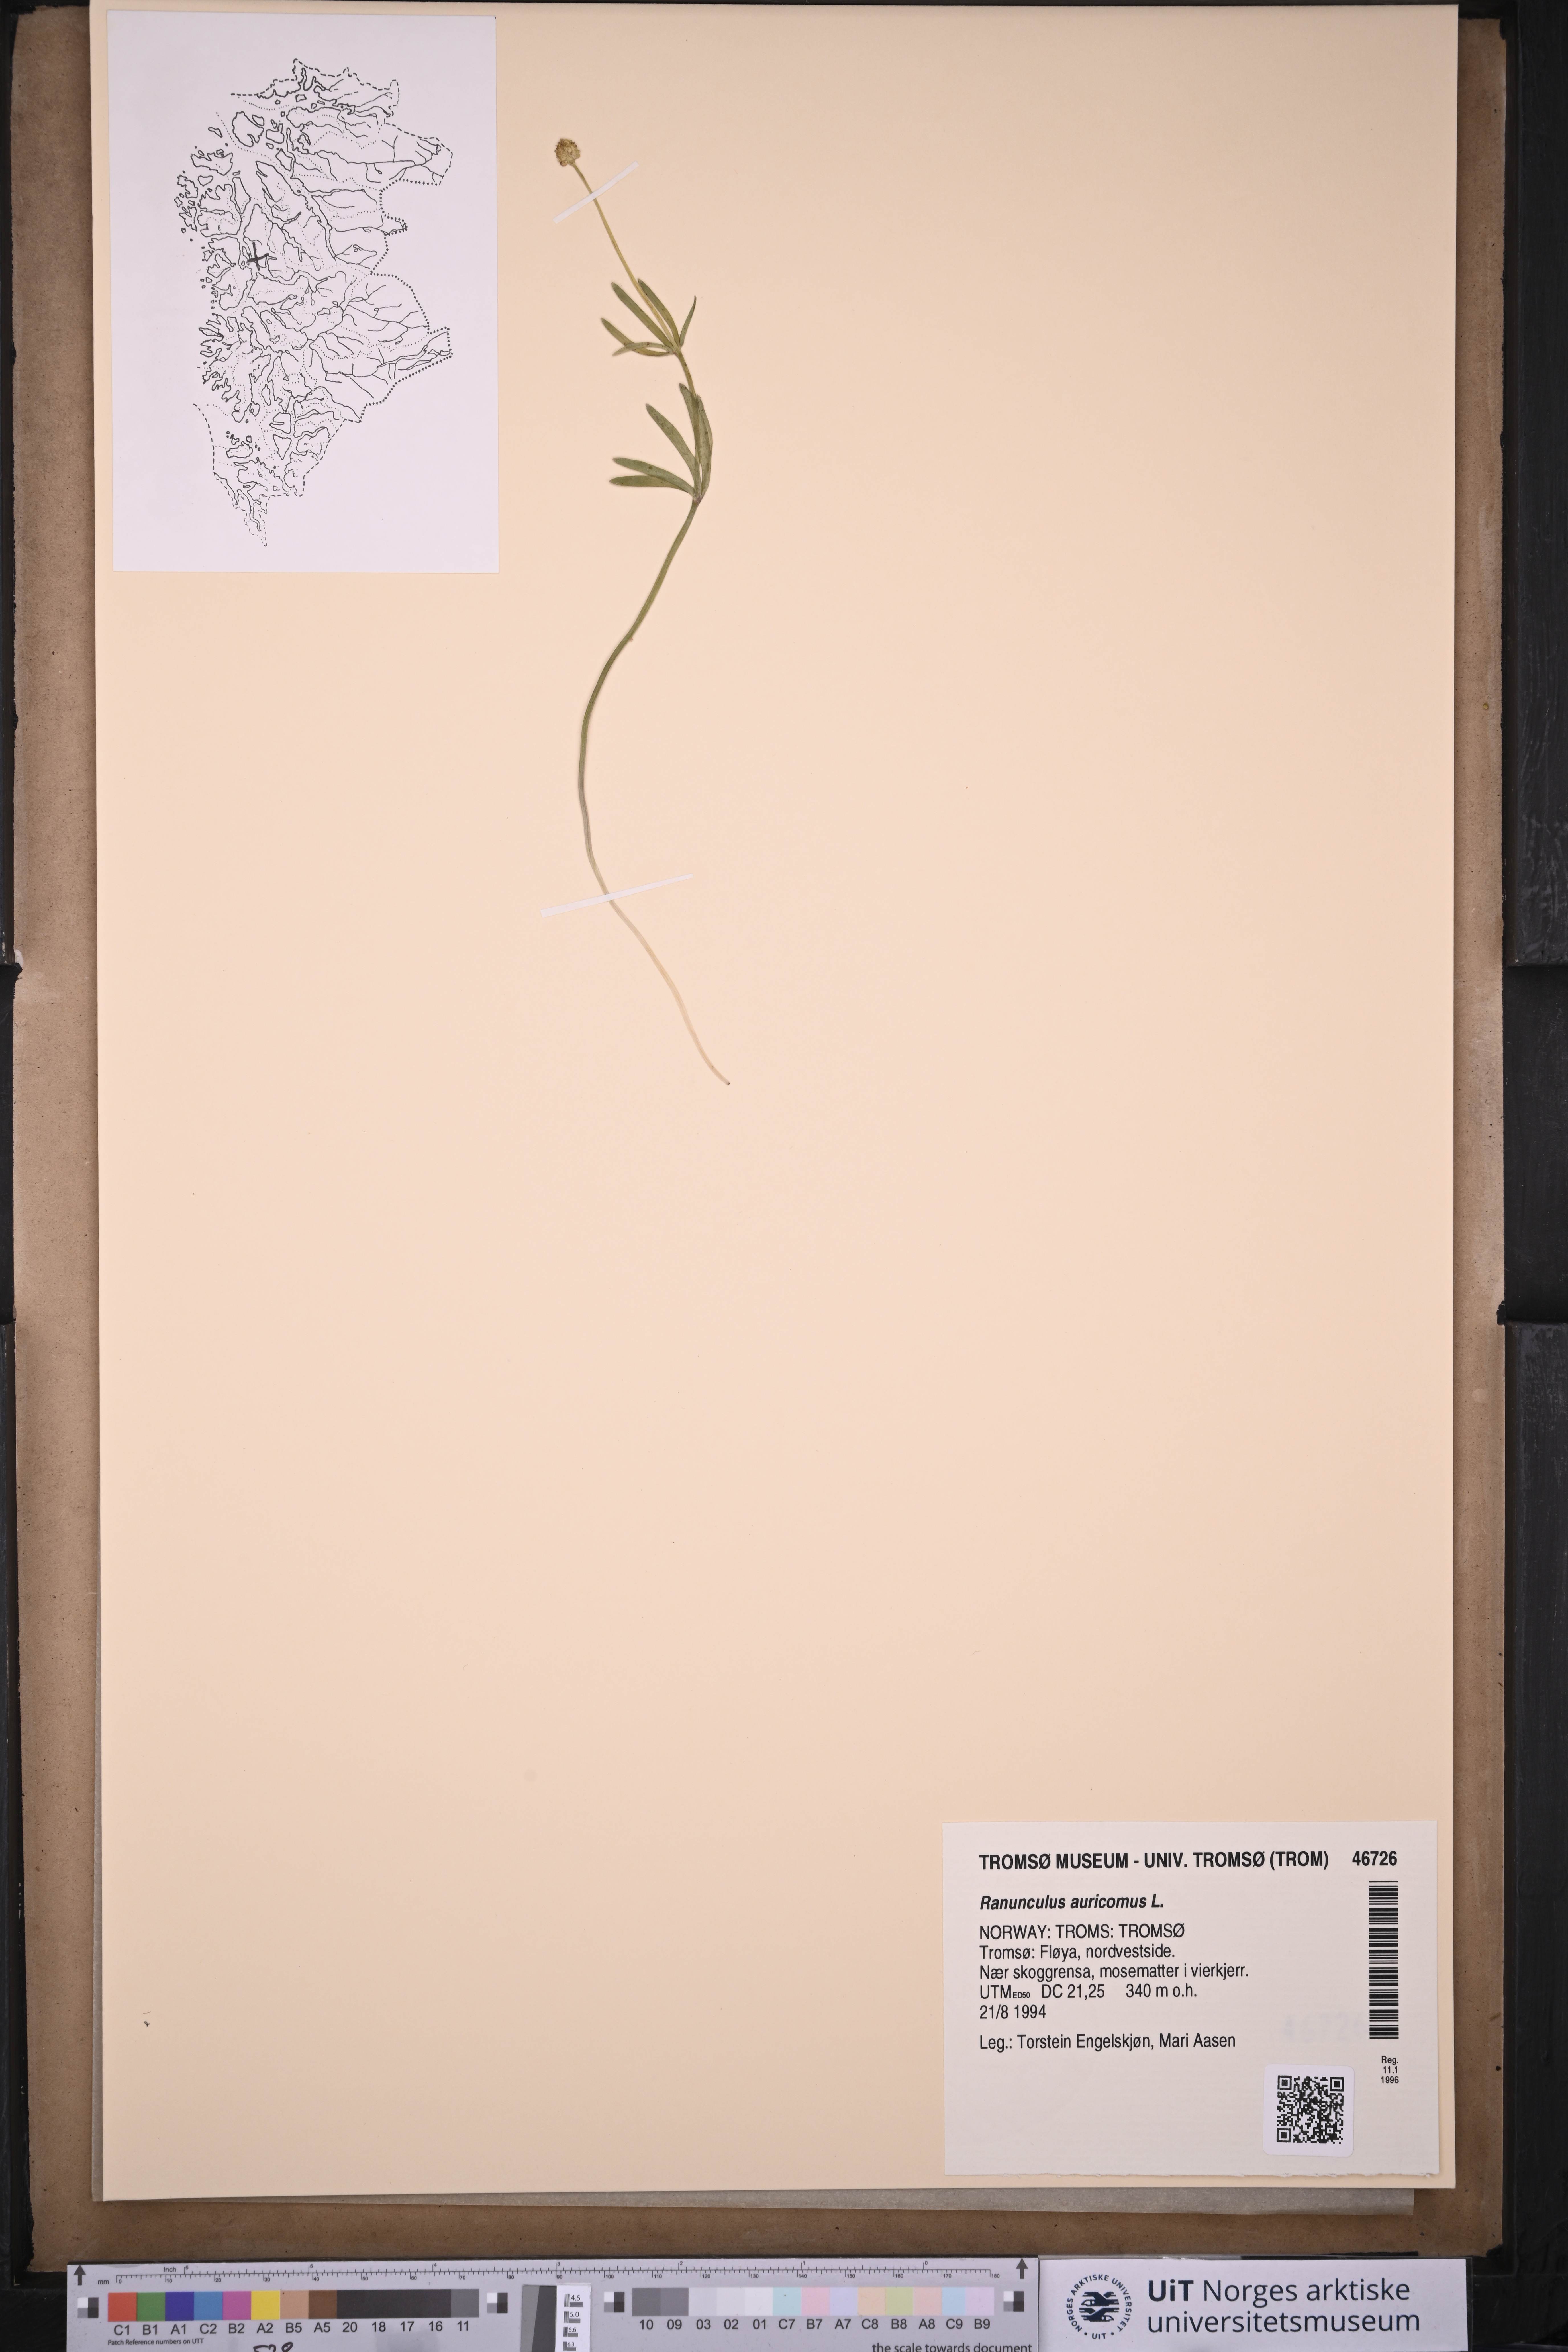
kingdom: Plantae
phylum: Tracheophyta
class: Magnoliopsida
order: Ranunculales
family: Ranunculaceae
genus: Ranunculus
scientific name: Ranunculus auricomus
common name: Goldilocks buttercup
